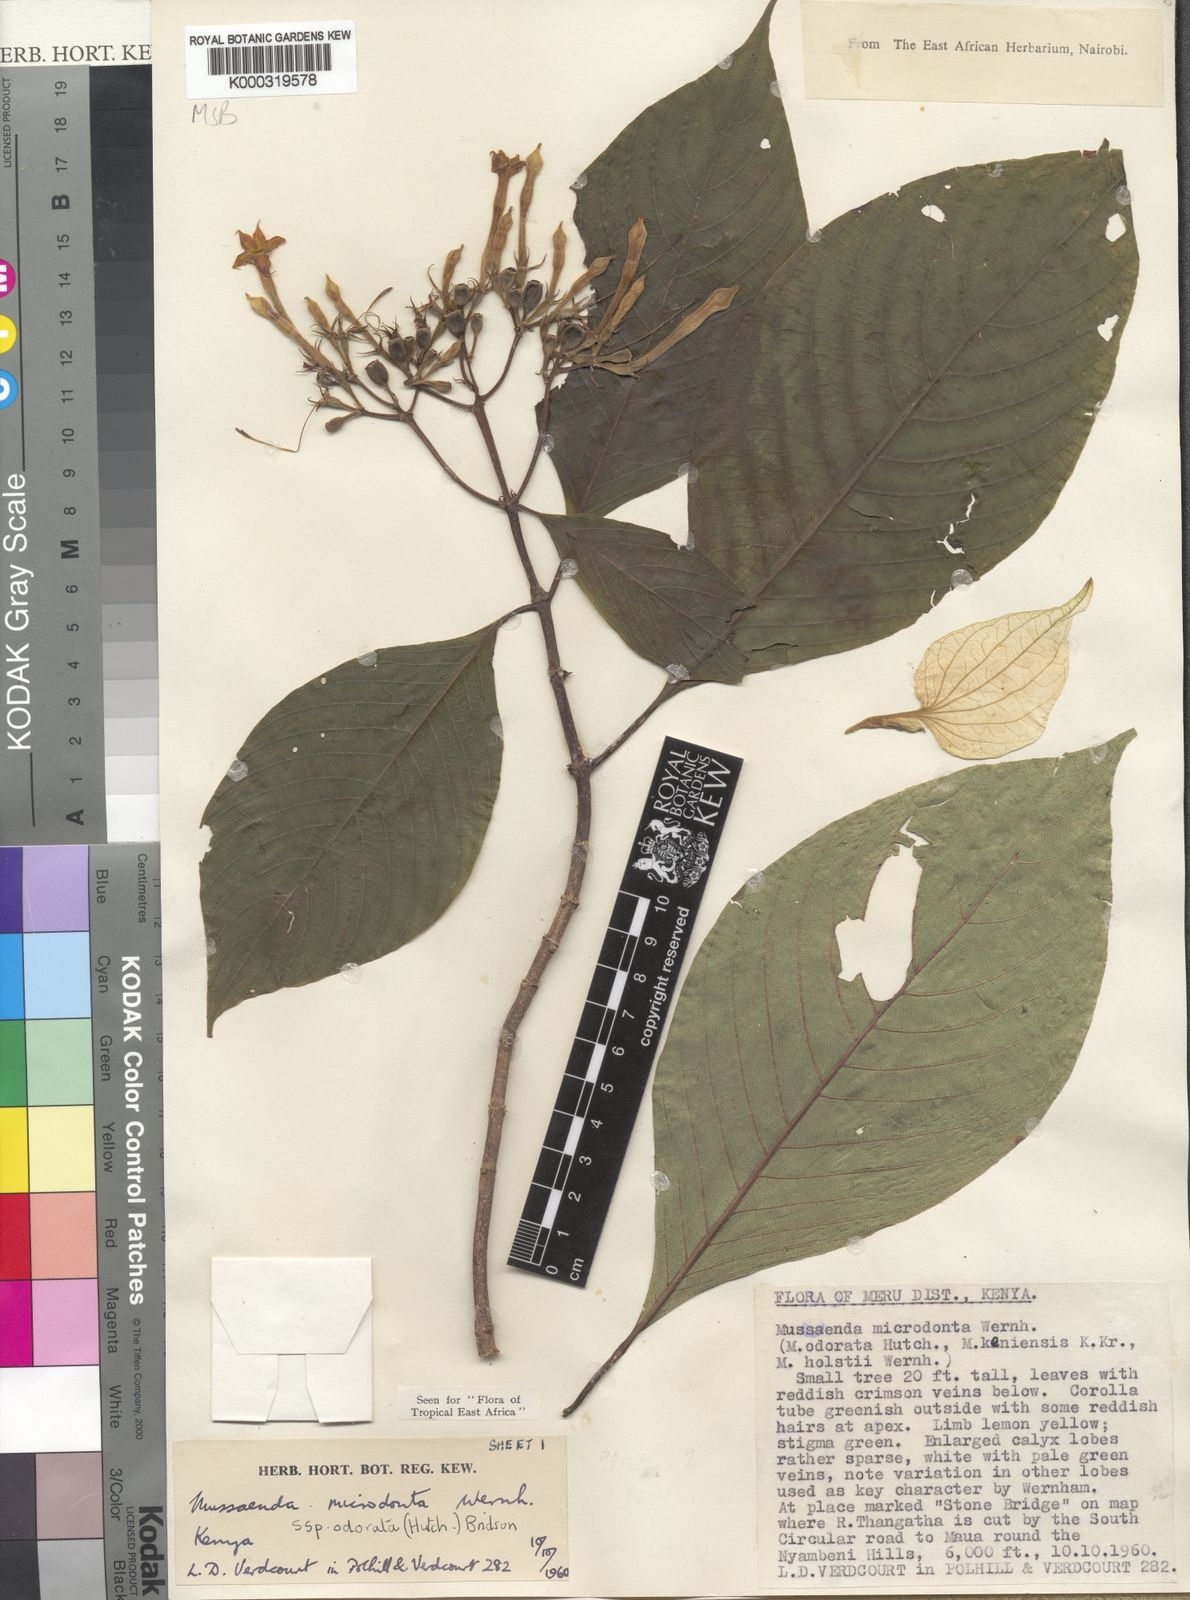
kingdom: Plantae
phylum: Tracheophyta
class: Magnoliopsida
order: Gentianales
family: Rubiaceae
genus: Mussaenda
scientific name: Mussaenda microdonta
